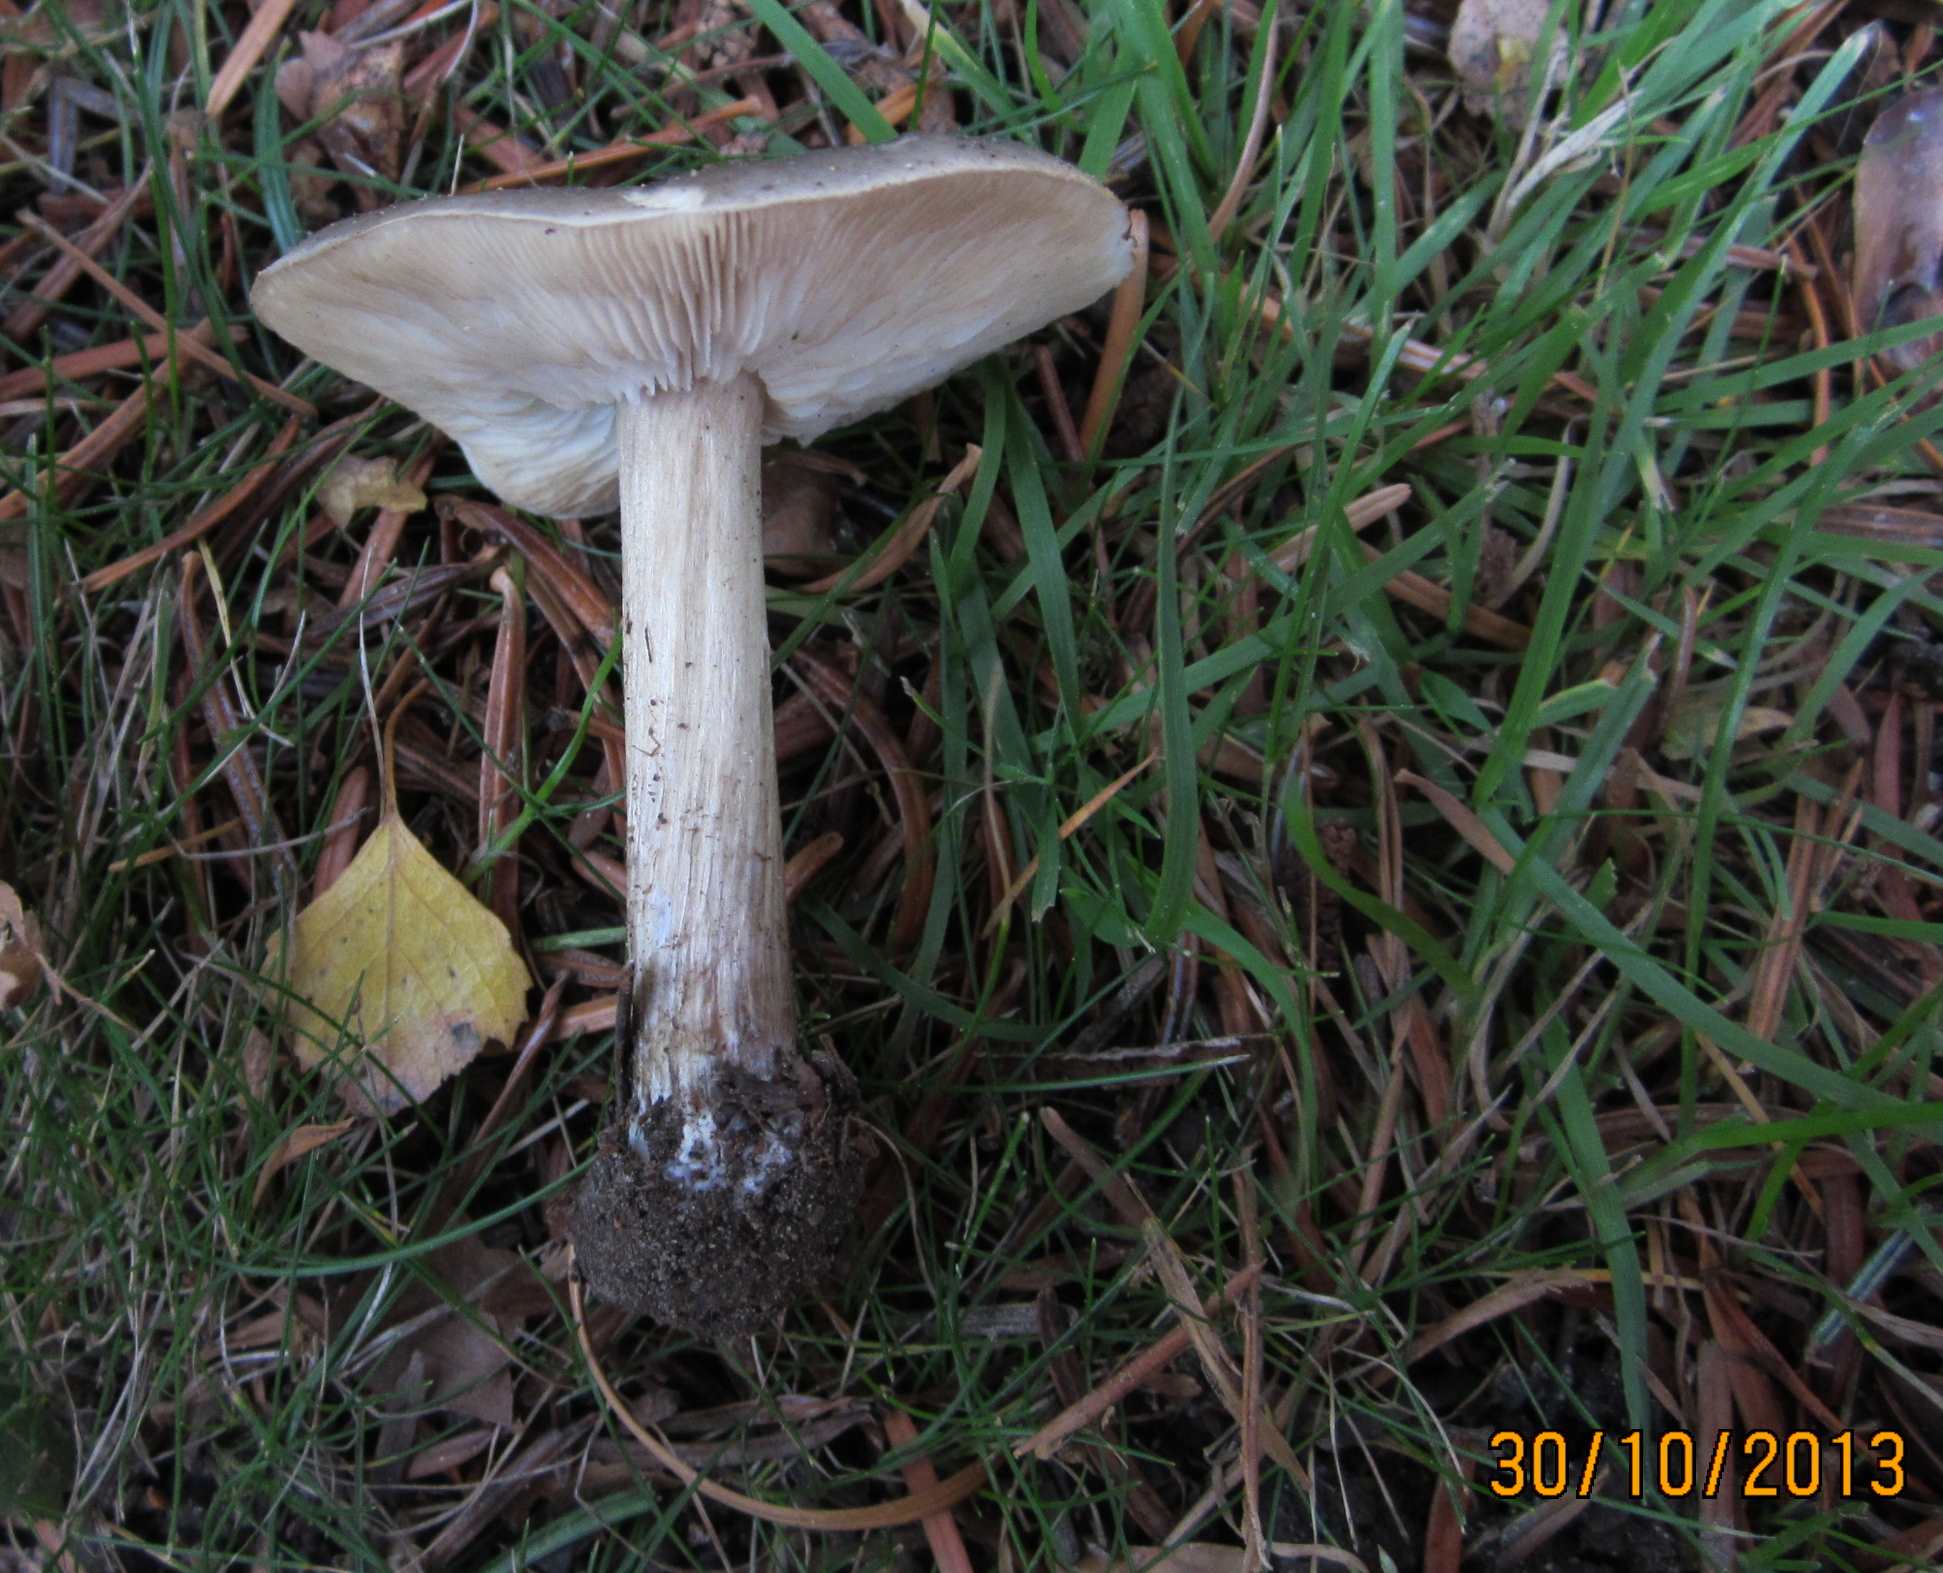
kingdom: Fungi
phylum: Basidiomycota
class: Agaricomycetes
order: Agaricales
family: Tricholomataceae
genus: Melanoleuca
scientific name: Melanoleuca polioleuca
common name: hvidbladet munkehat
